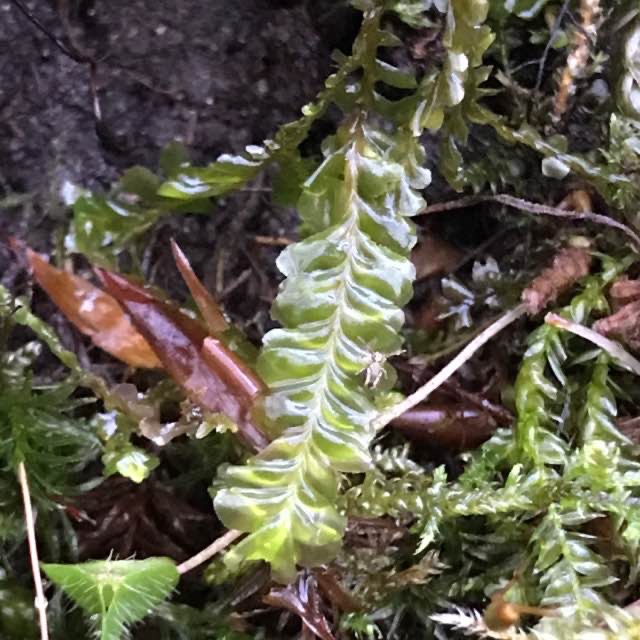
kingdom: Plantae
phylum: Marchantiophyta
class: Jungermanniopsida
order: Jungermanniales
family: Plagiochilaceae
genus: Plagiochila
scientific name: Plagiochila asplenioides
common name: Radeløv-hindeblad
